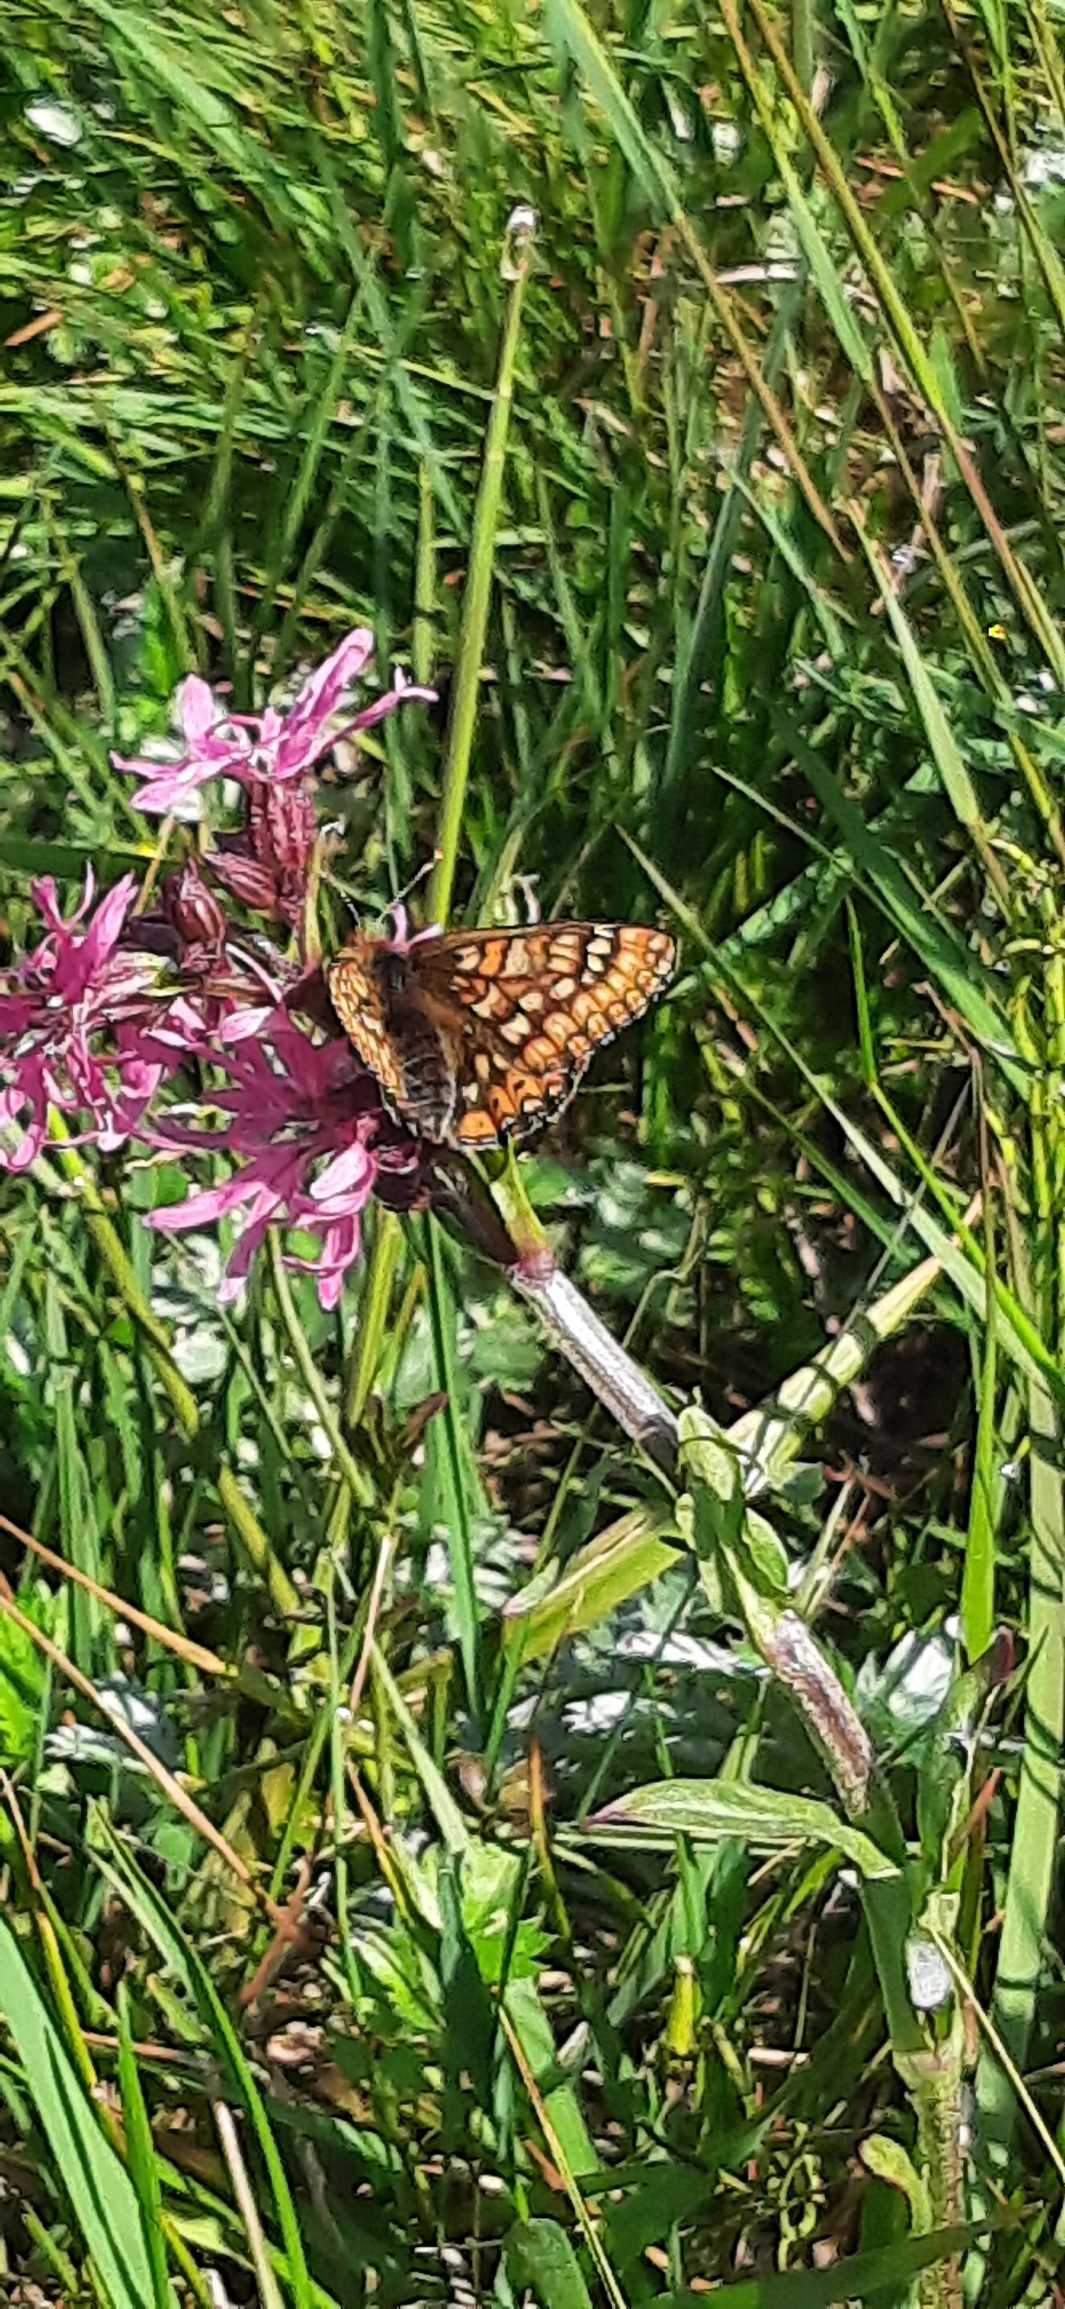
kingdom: Animalia
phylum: Arthropoda
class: Insecta
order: Lepidoptera
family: Nymphalidae
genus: Euphydryas
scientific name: Euphydryas aurinia
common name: Hedepletvinge
